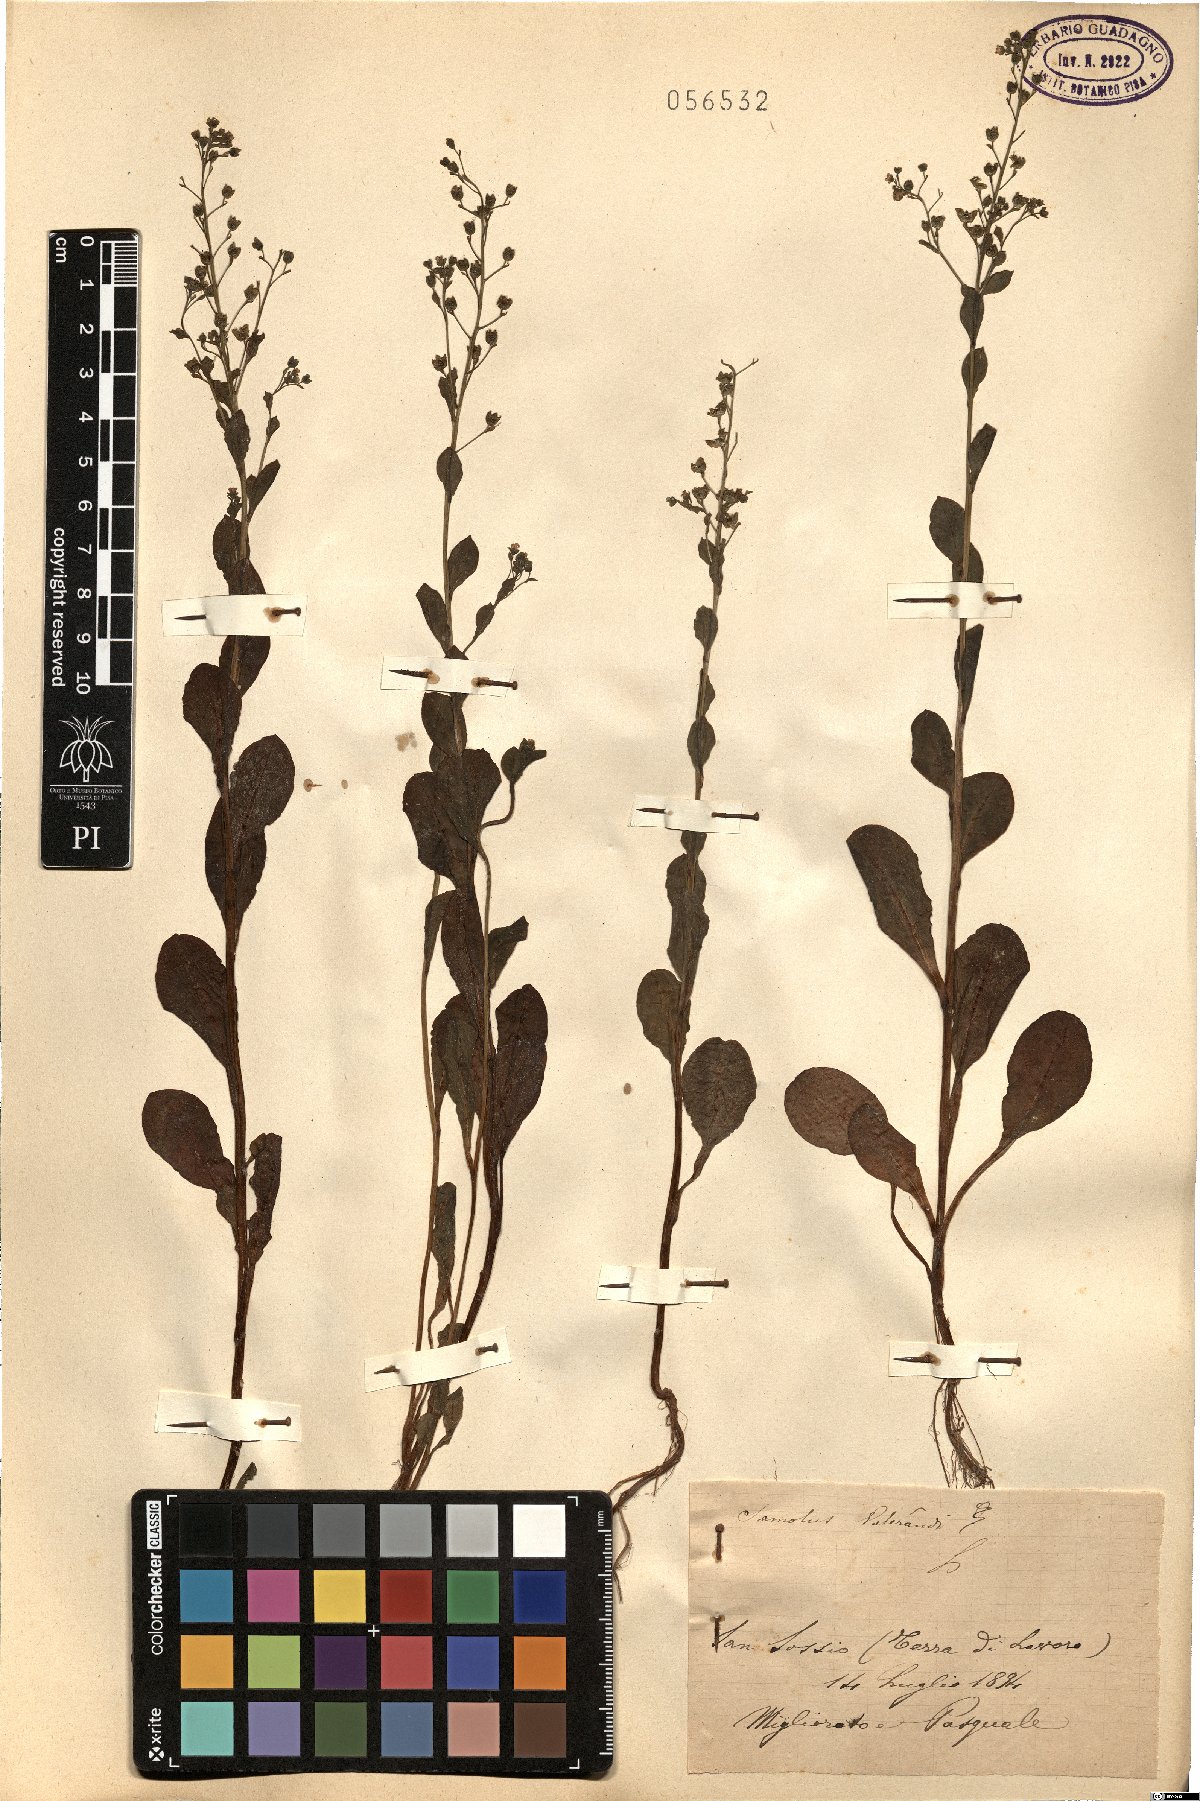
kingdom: Plantae
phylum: Tracheophyta
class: Magnoliopsida
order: Ericales
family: Primulaceae
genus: Samolus
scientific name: Samolus valerandi
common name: Brookweed
